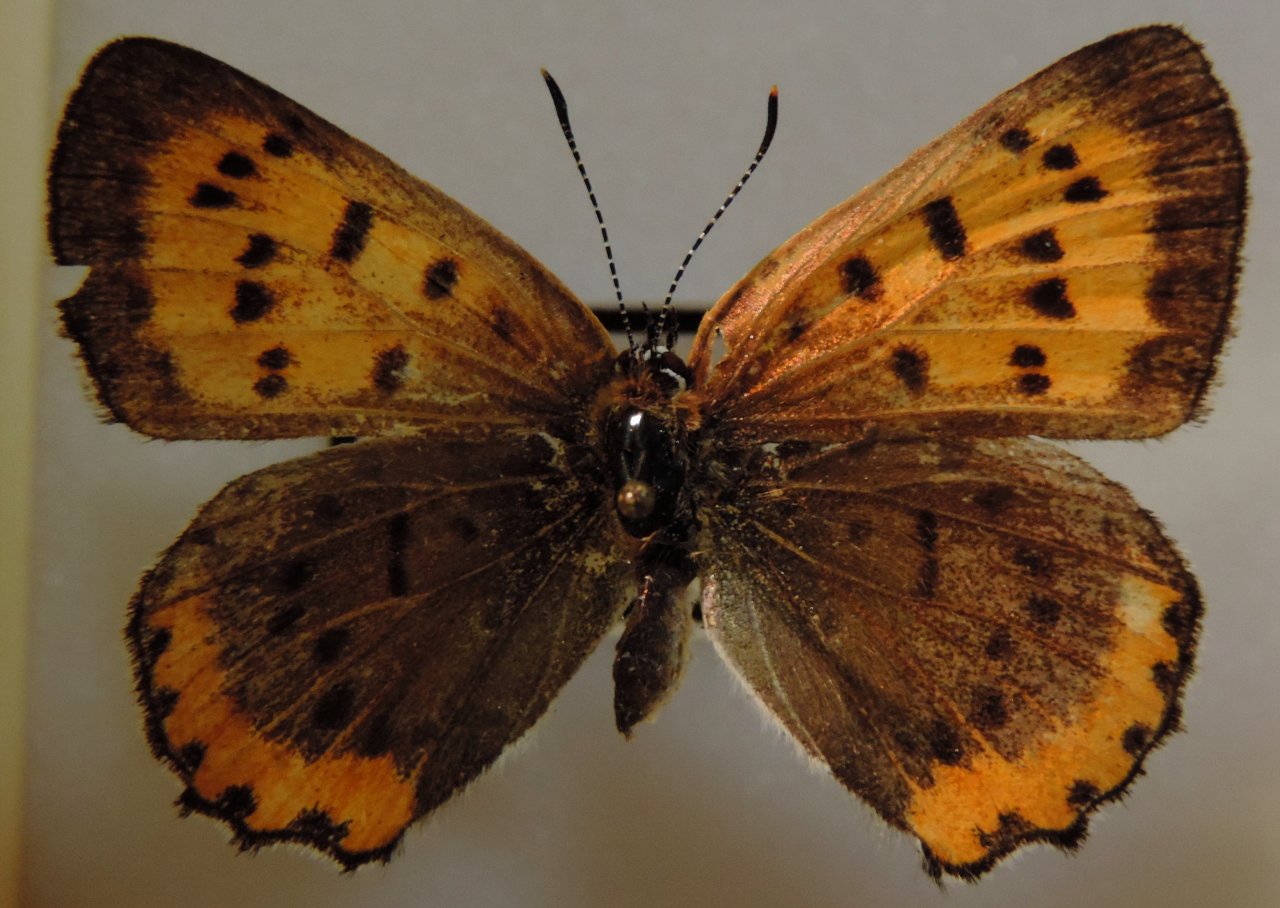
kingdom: Animalia
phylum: Arthropoda
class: Insecta
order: Lepidoptera
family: Sesiidae
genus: Sesia
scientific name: Sesia Lycaena hyllus
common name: Bronze Copper
